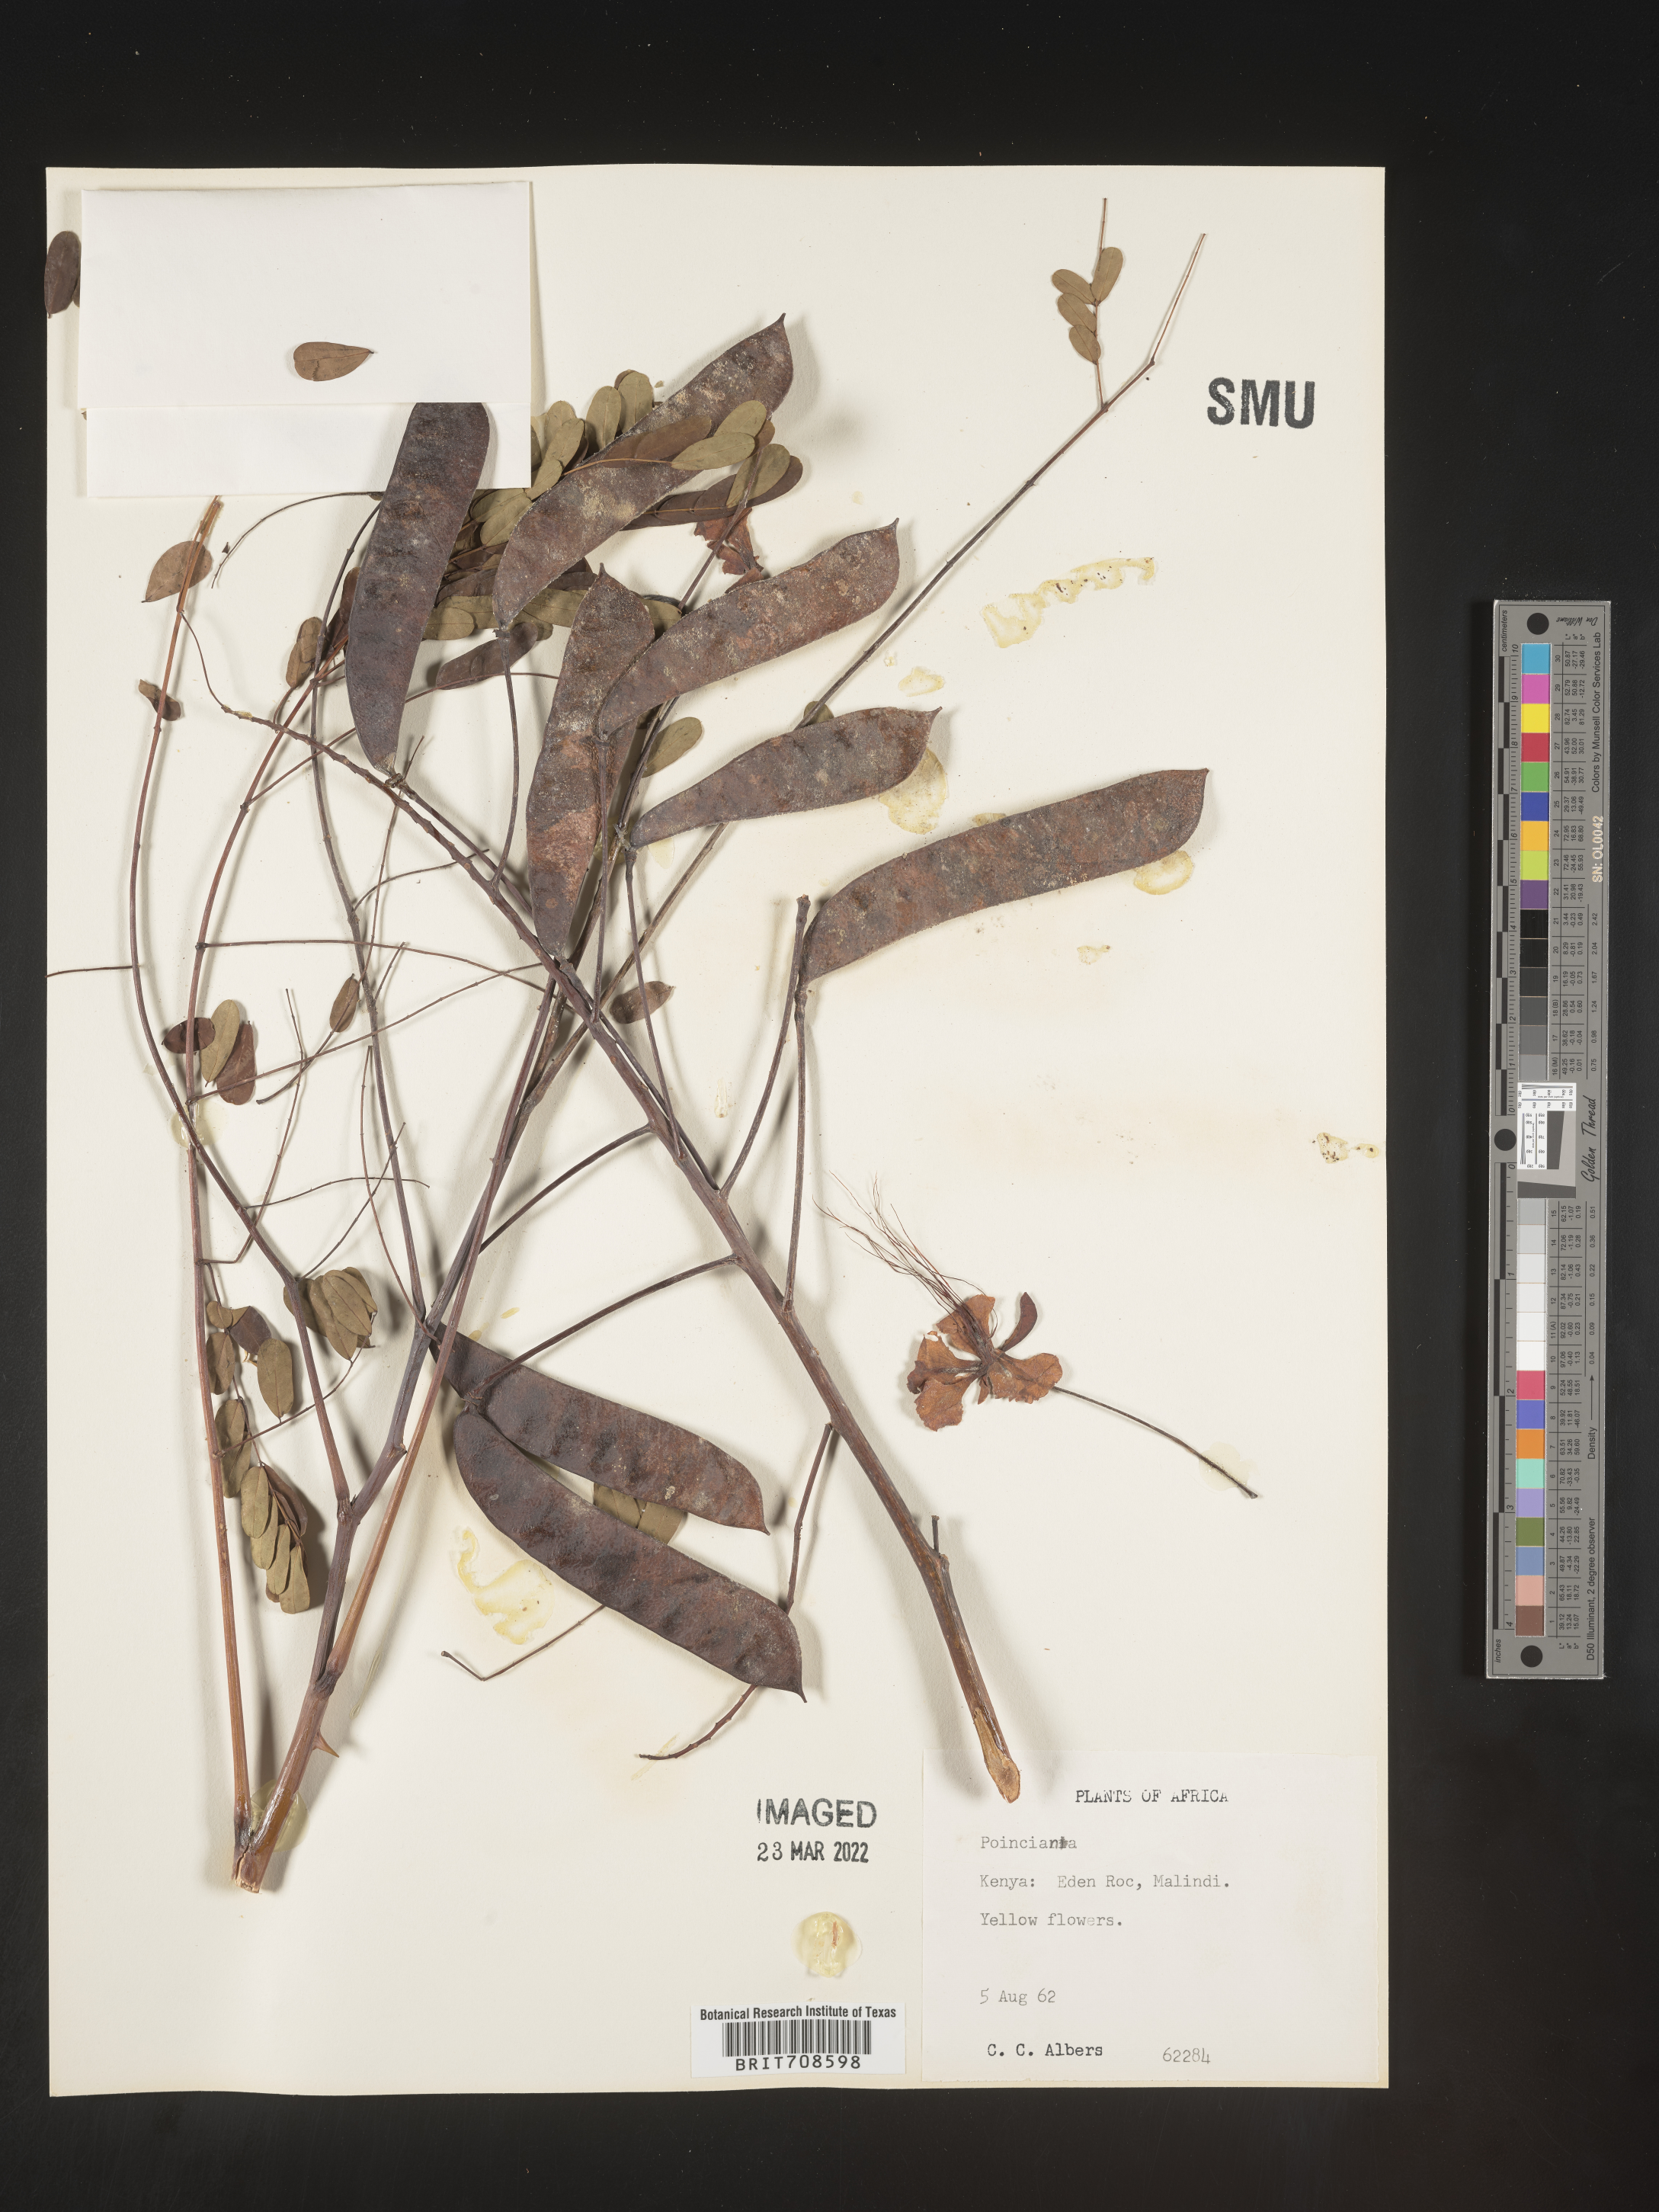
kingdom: Plantae
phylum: Tracheophyta
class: Magnoliopsida
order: Fabales
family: Fabaceae
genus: Caesalpinia
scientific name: Caesalpinia
